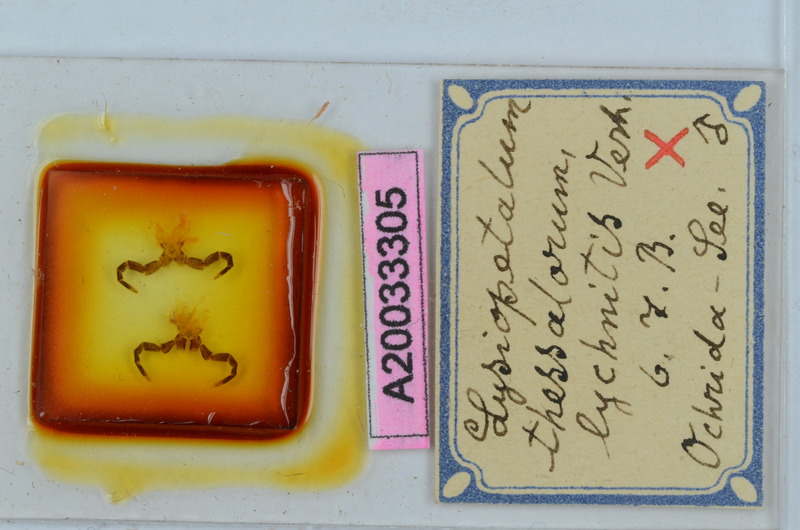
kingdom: Animalia
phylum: Arthropoda
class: Diplopoda
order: Callipodida
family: Schizopetalidae
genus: Acanthopetalum
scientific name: Acanthopetalum thessalorum
